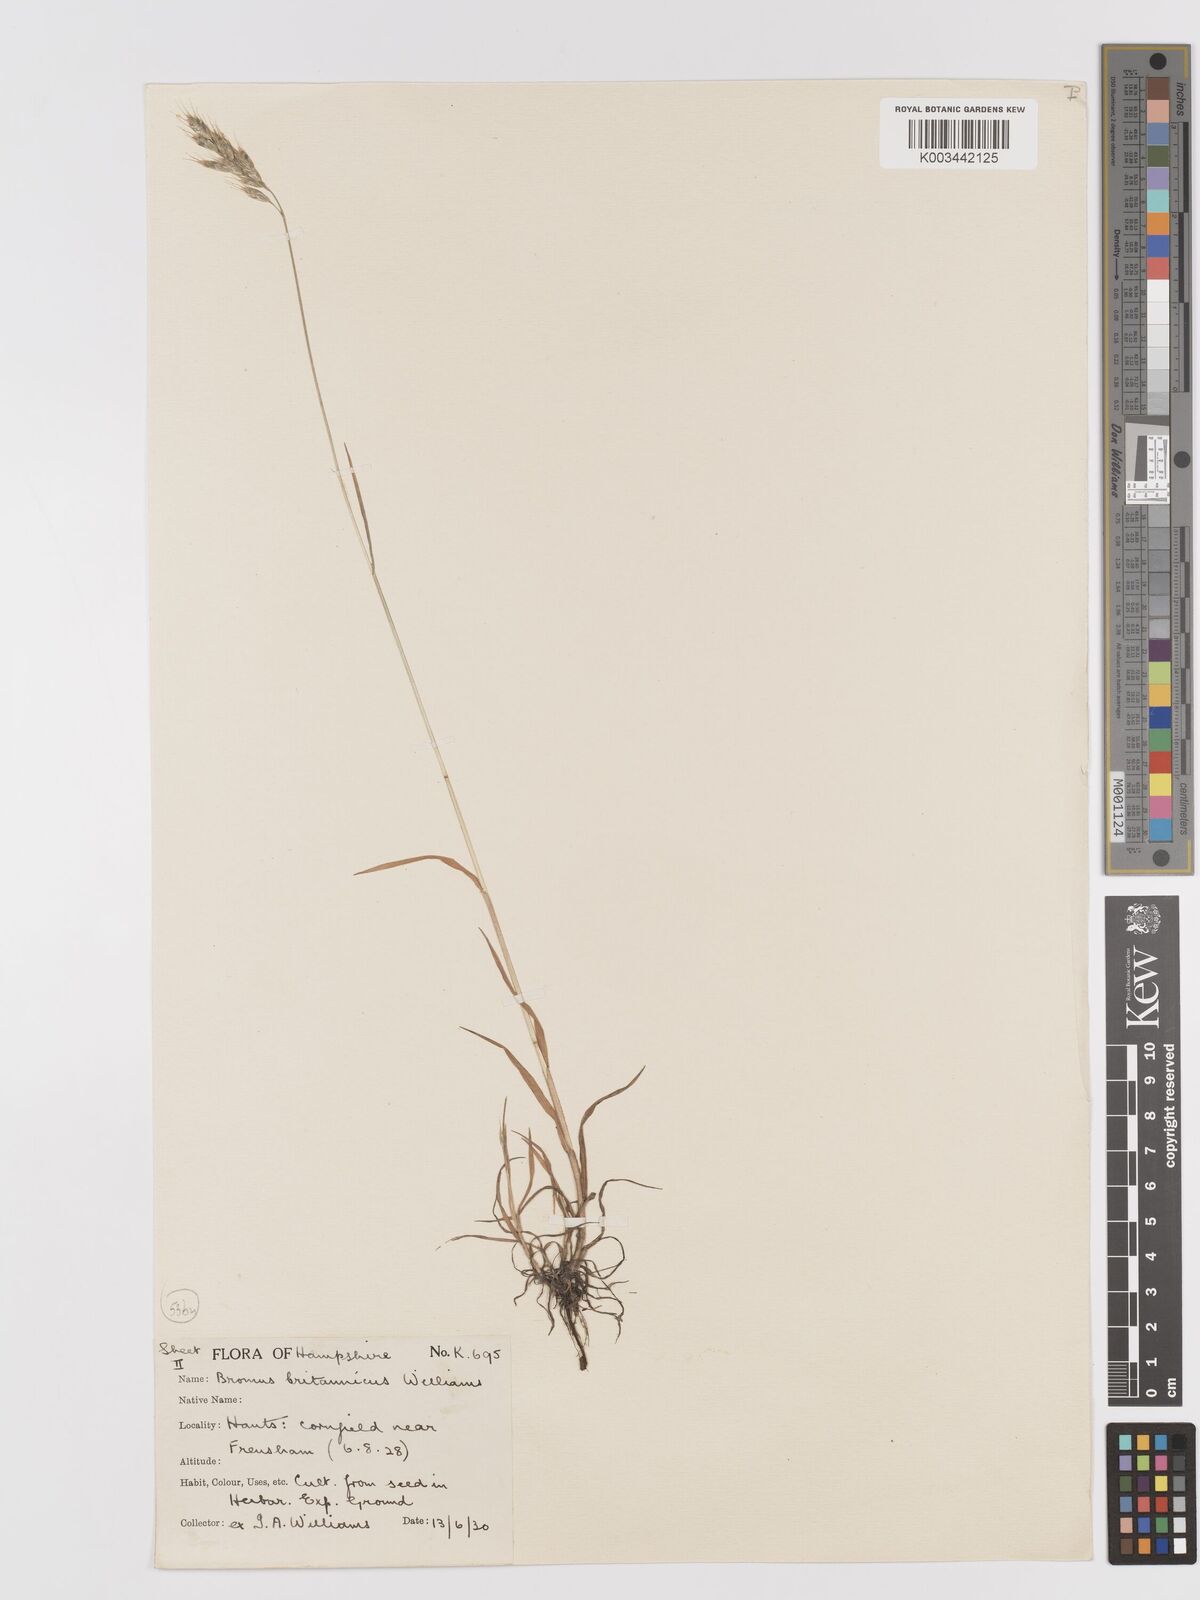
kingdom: Plantae
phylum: Tracheophyta
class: Liliopsida
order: Poales
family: Poaceae
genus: Bromus
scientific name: Bromus lepidus
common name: Slender soft-brome
